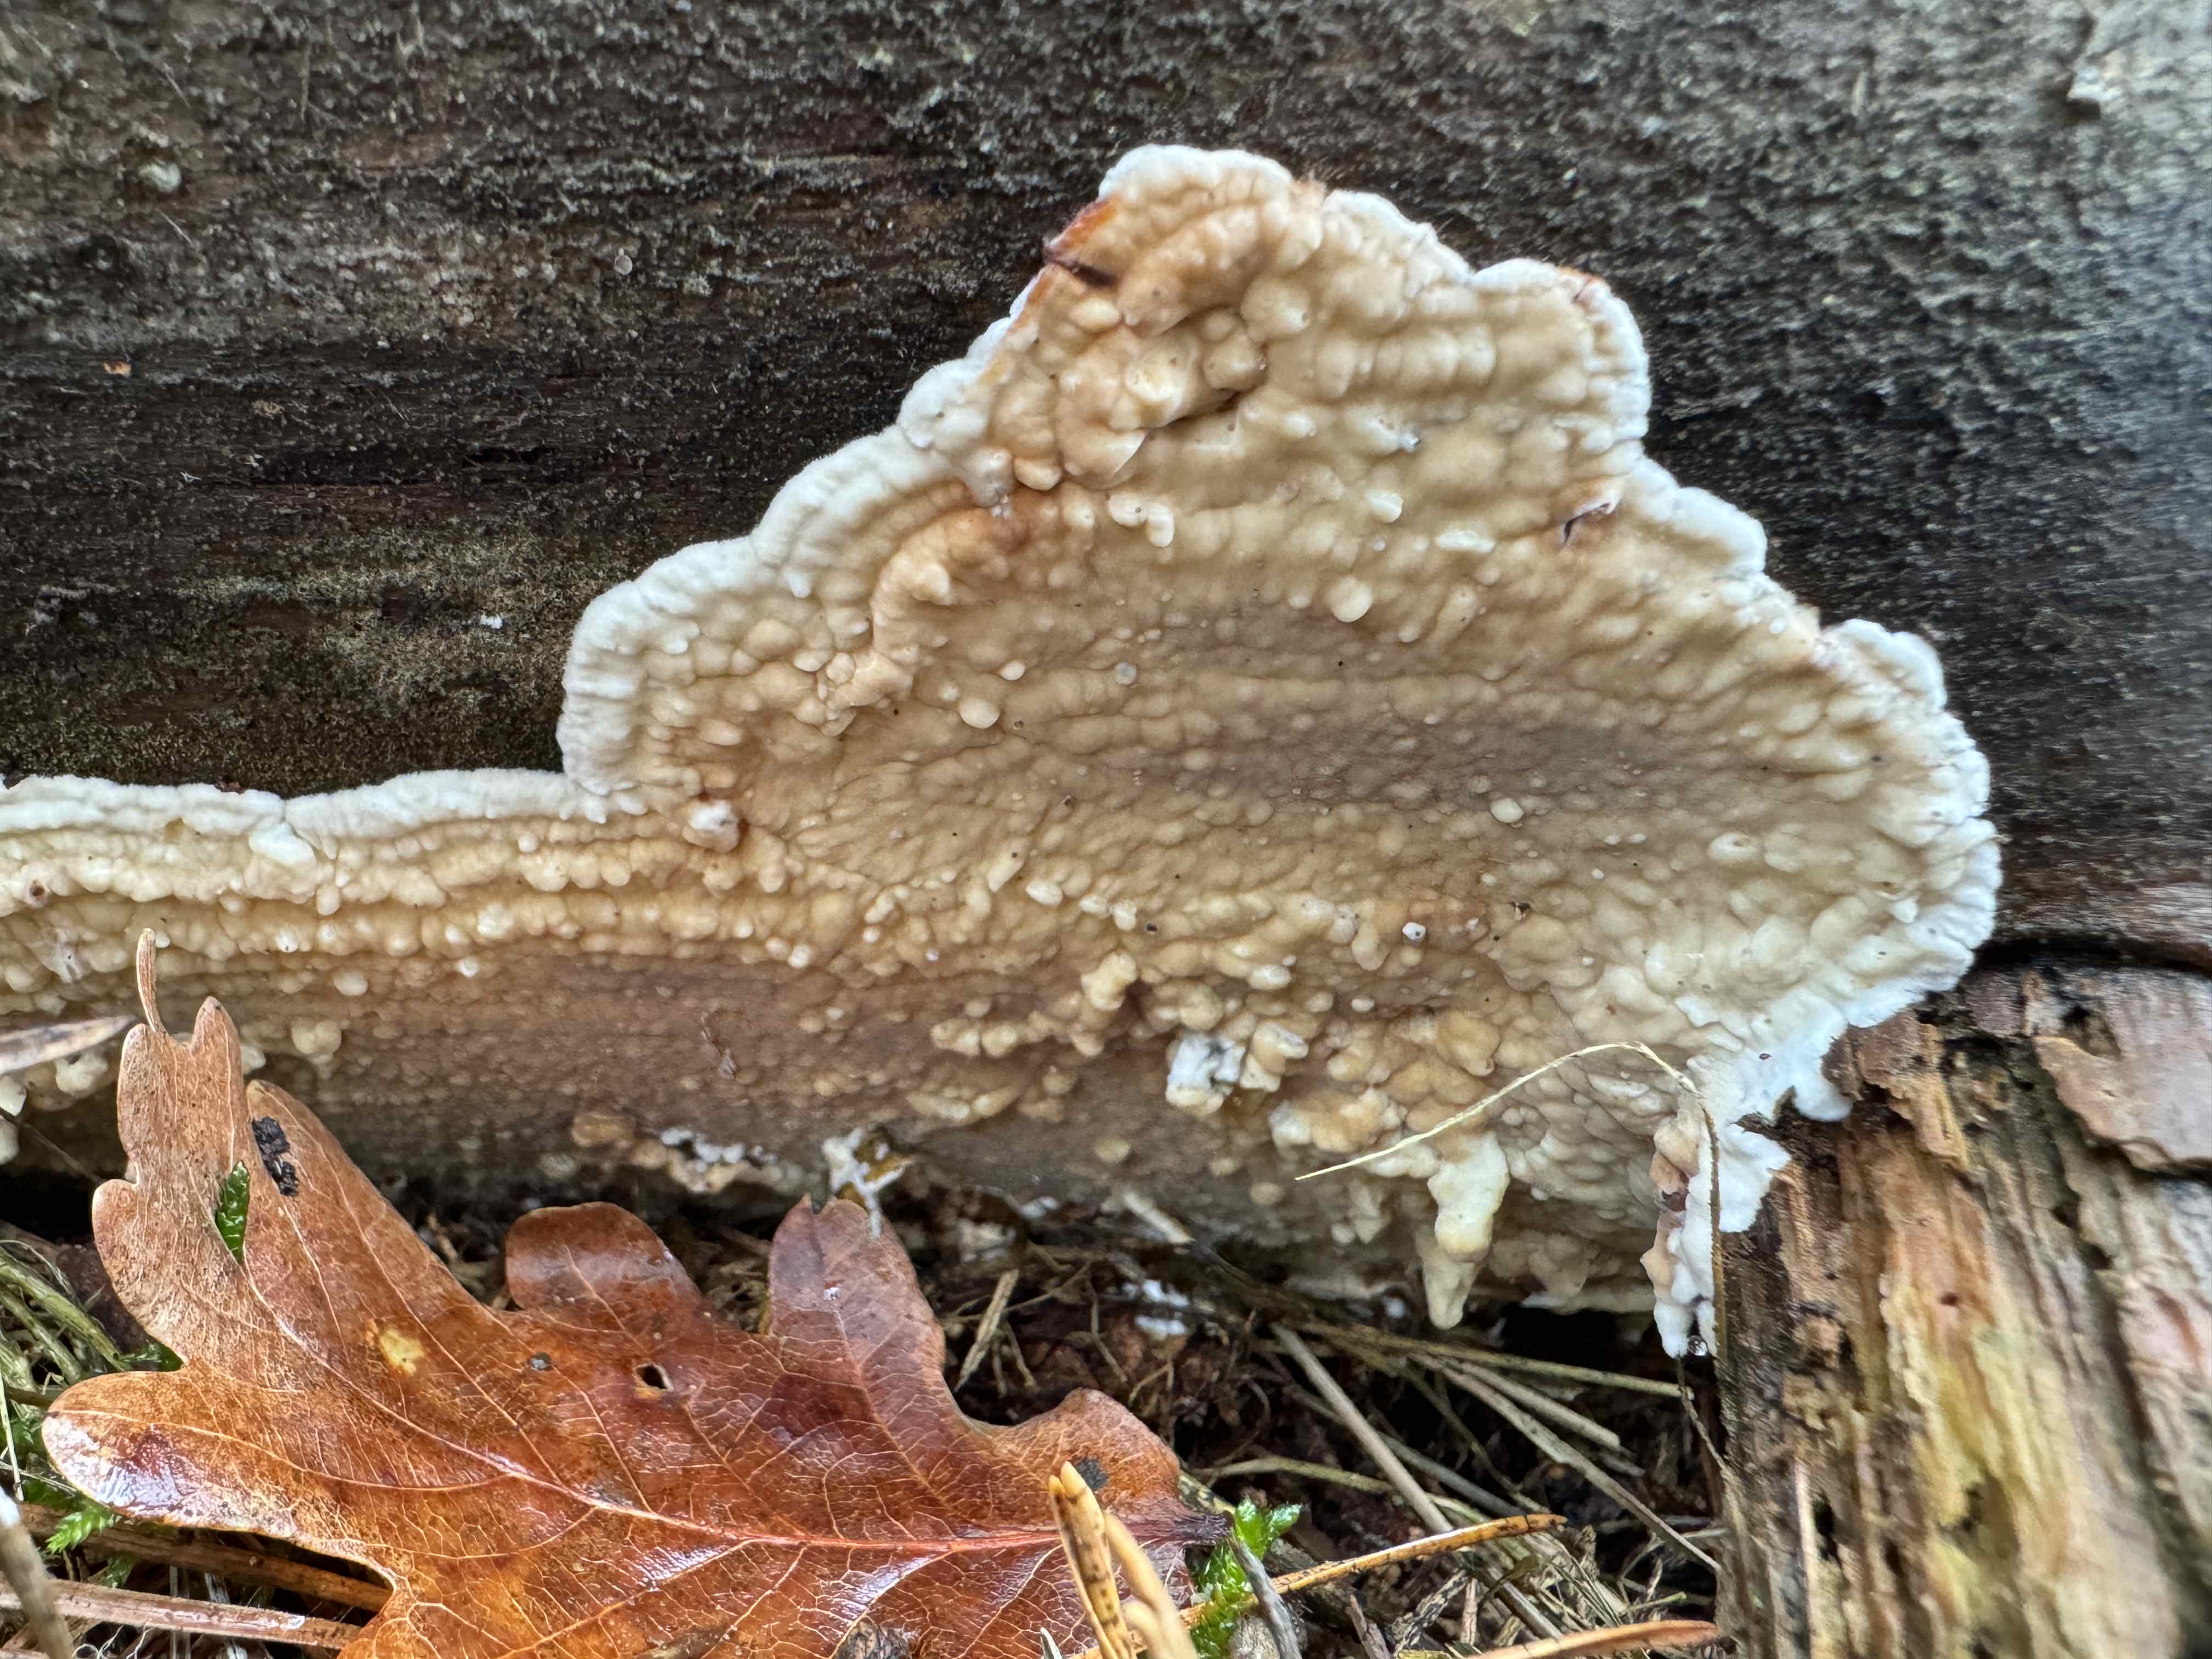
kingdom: Fungi
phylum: Basidiomycota
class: Agaricomycetes
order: Polyporales
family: Dacryobolaceae
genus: Dacryobolus
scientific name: Dacryobolus karstenii
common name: glat vulkanskorpe
